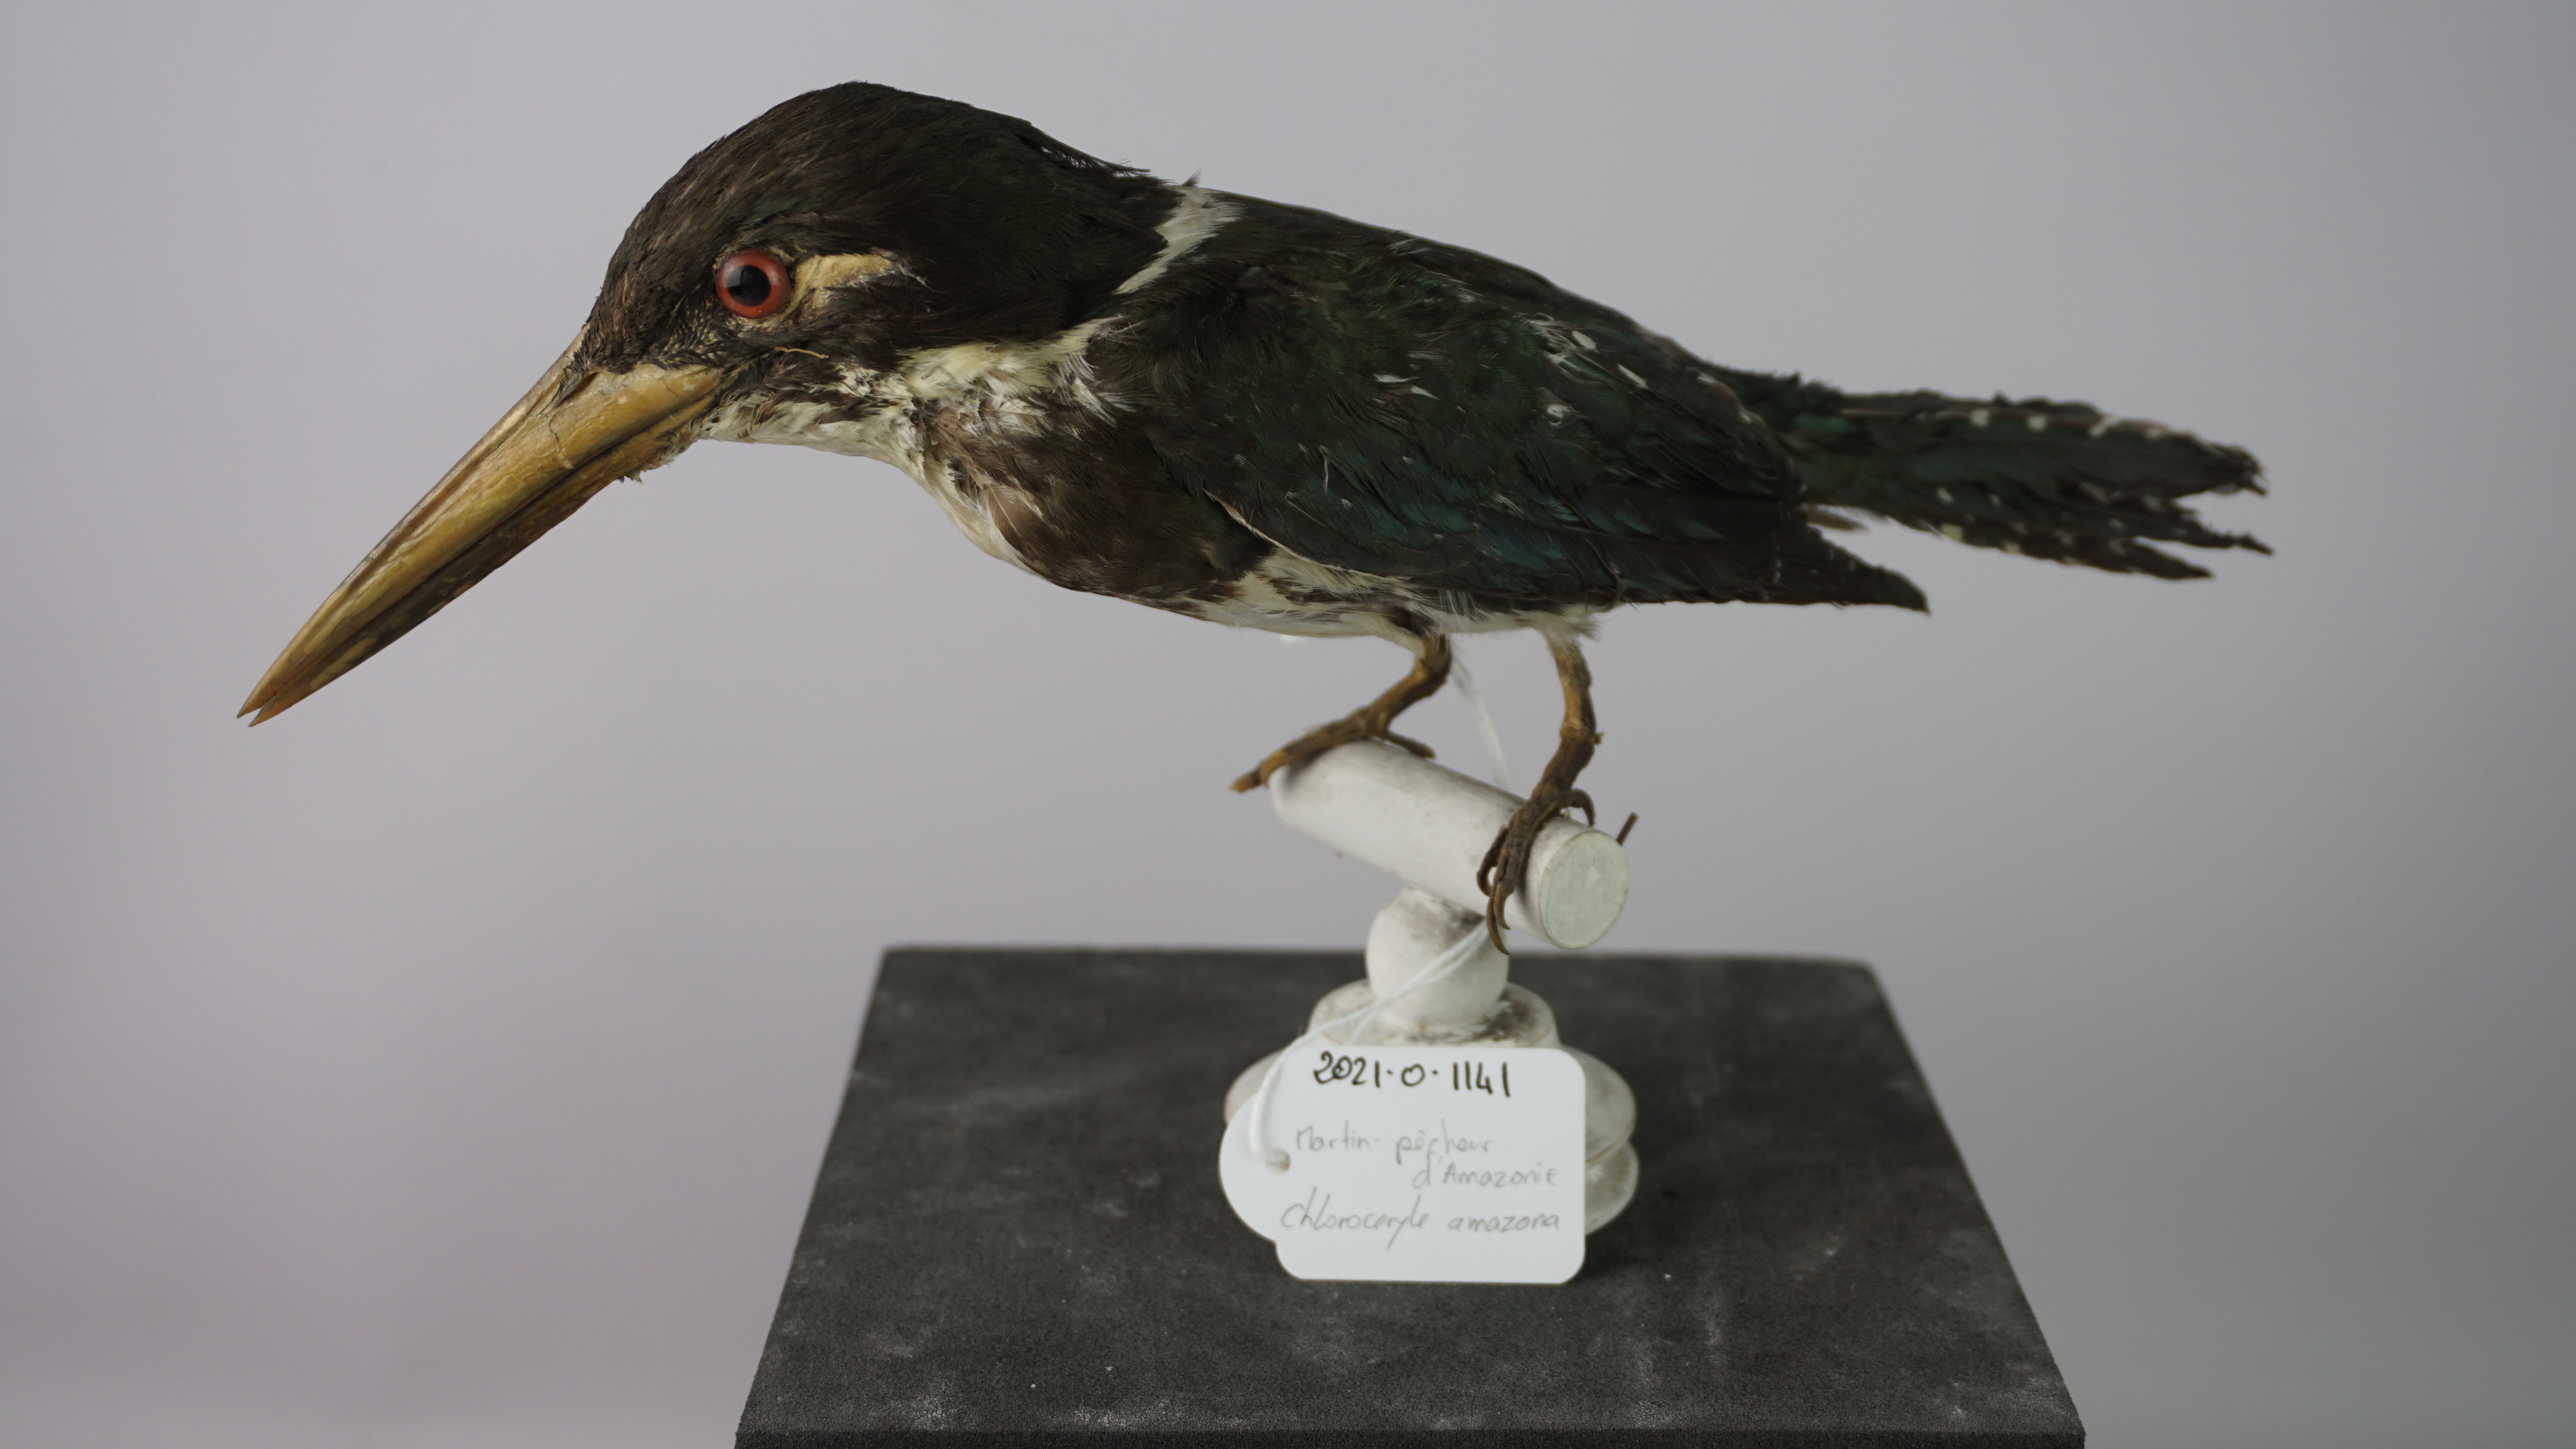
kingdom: Animalia
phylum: Chordata
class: Aves
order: Coraciiformes
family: Alcedinidae
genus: Chloroceryle
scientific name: Chloroceryle amazona
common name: Amazon kingfisher
